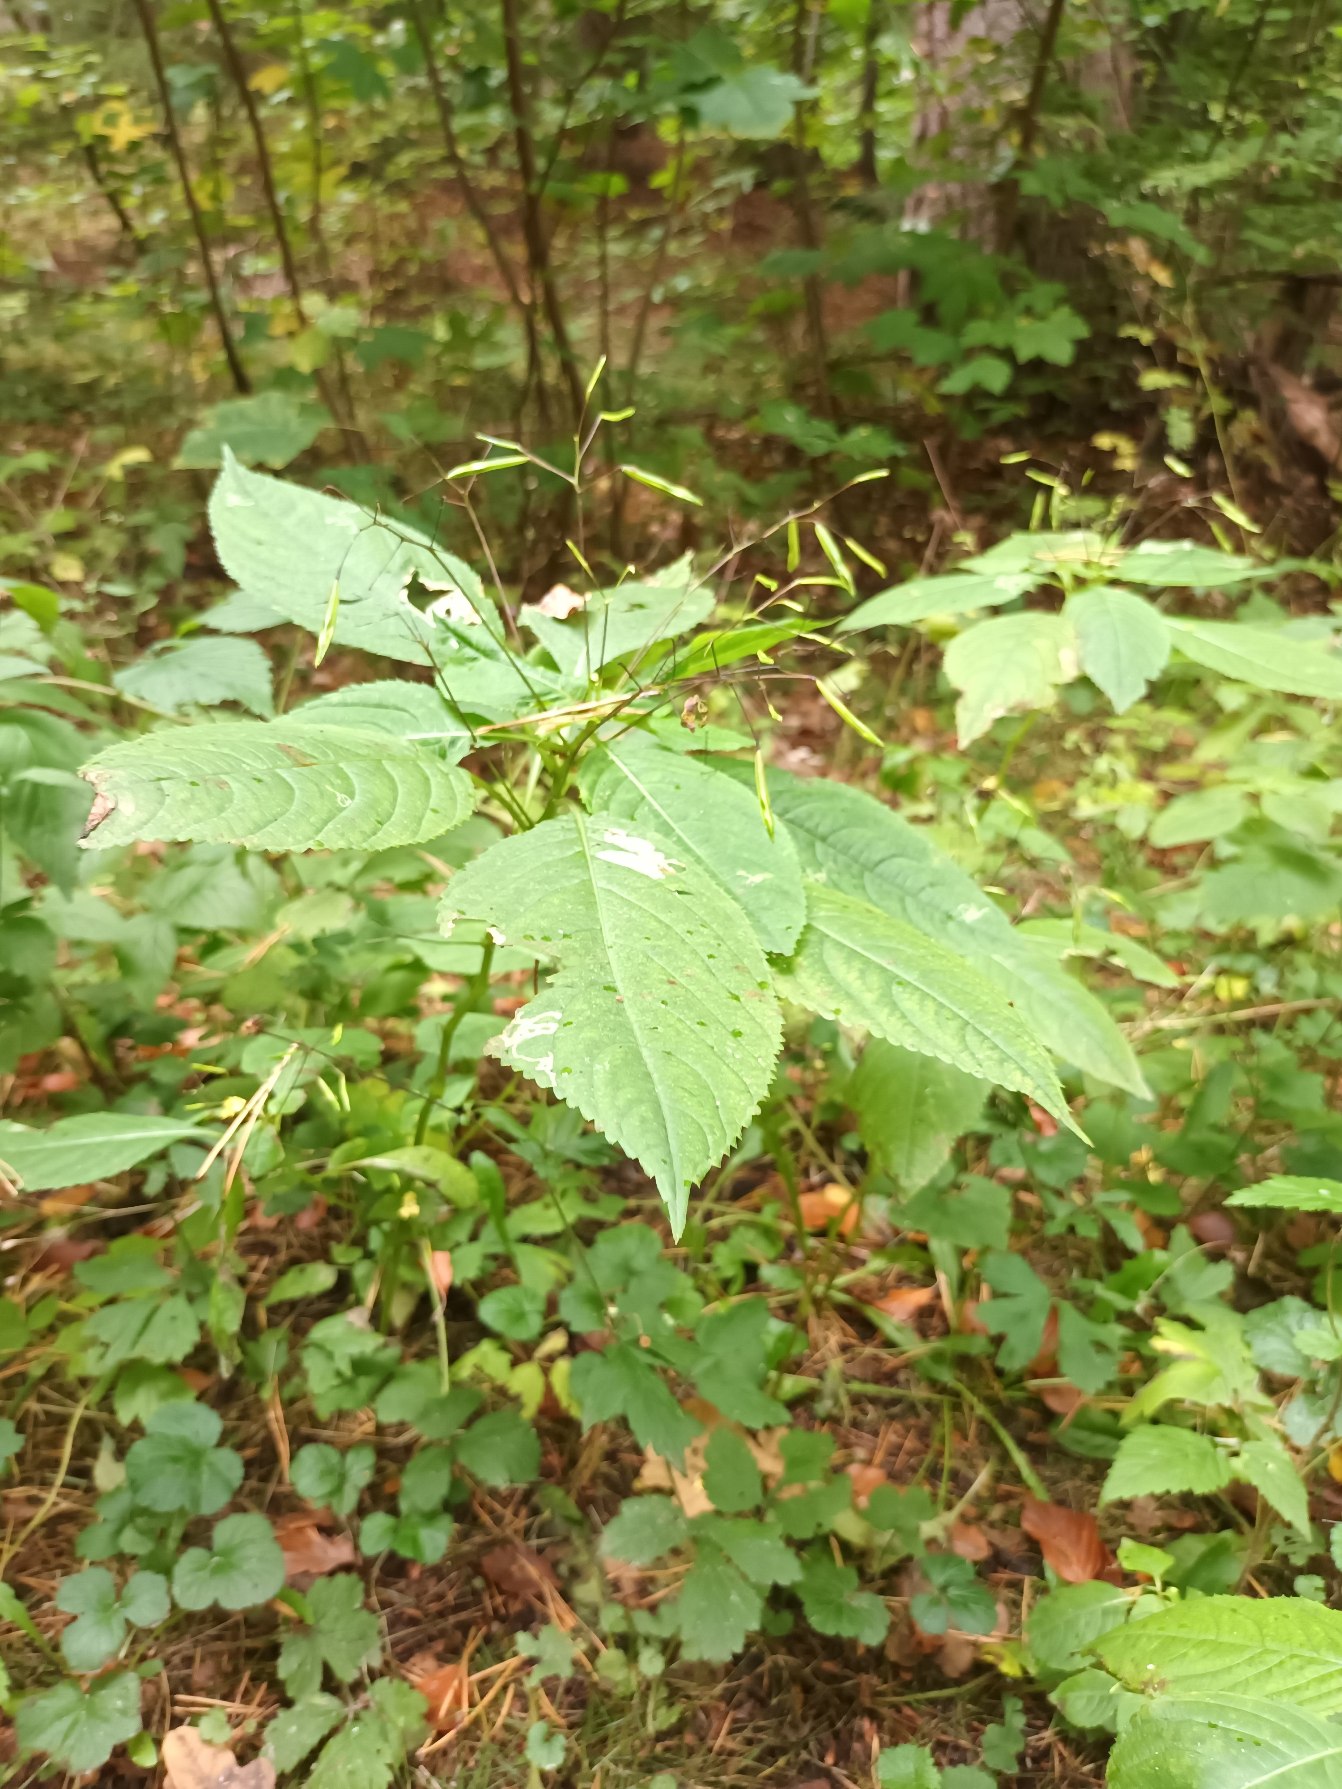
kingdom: Plantae
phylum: Tracheophyta
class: Magnoliopsida
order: Ericales
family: Balsaminaceae
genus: Impatiens
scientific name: Impatiens parviflora
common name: Småblomstret balsamin
